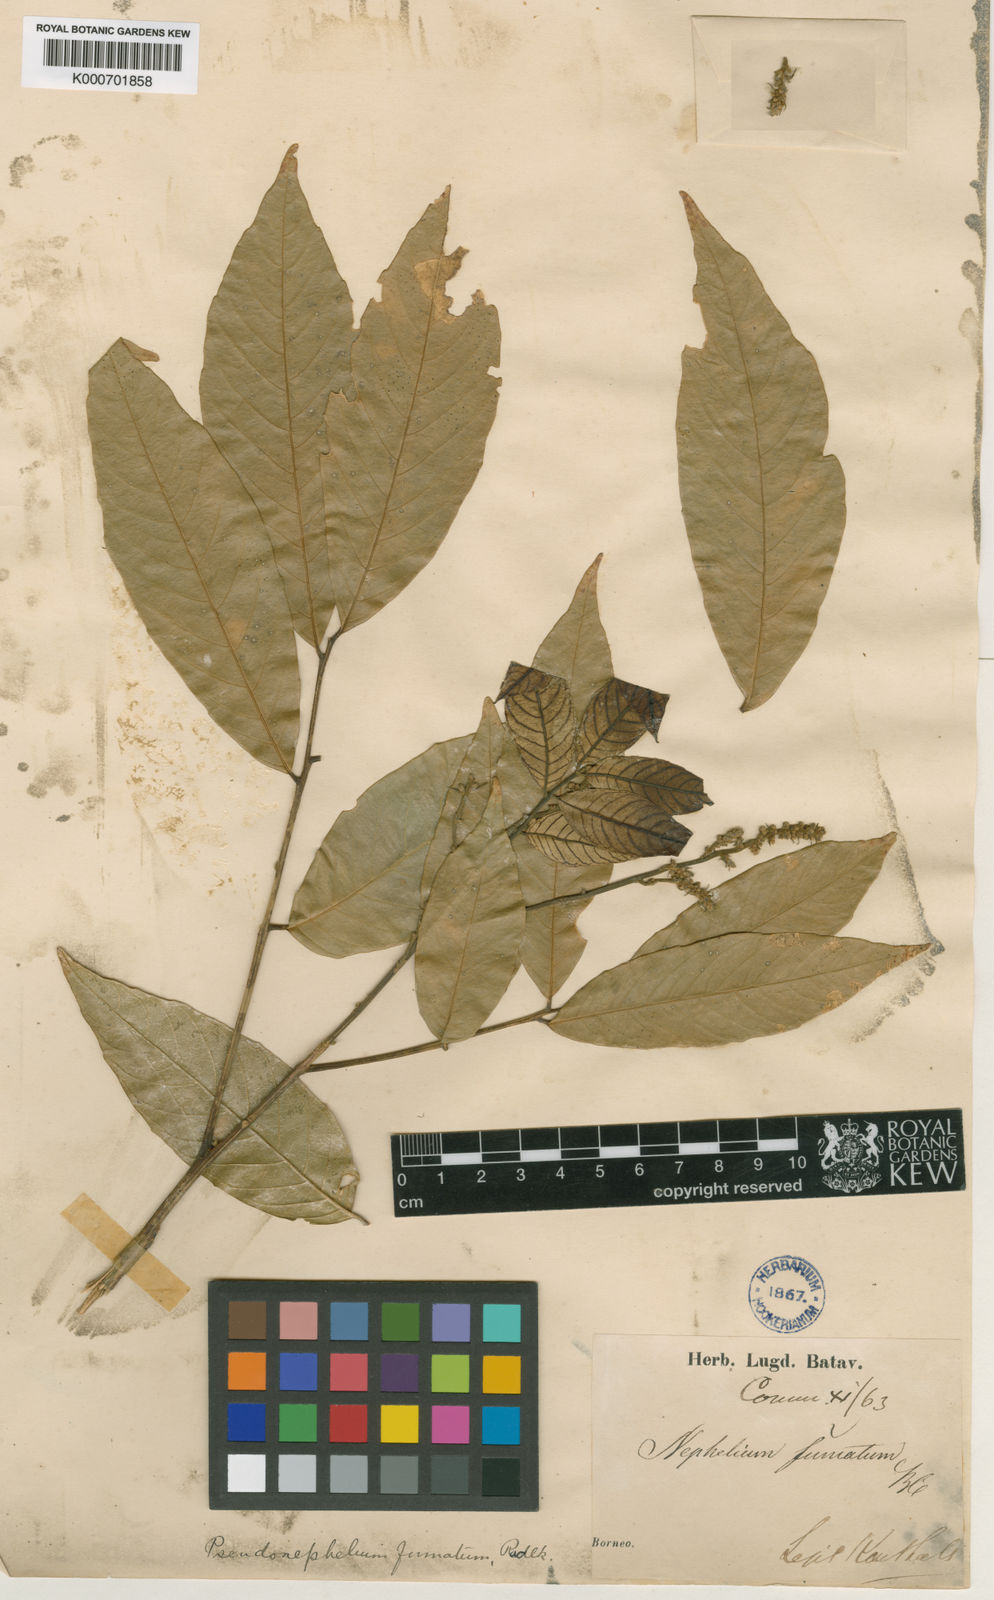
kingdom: Plantae
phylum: Tracheophyta
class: Magnoliopsida
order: Sapindales
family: Sapindaceae
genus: Dimocarpus
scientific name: Dimocarpus fumatus
